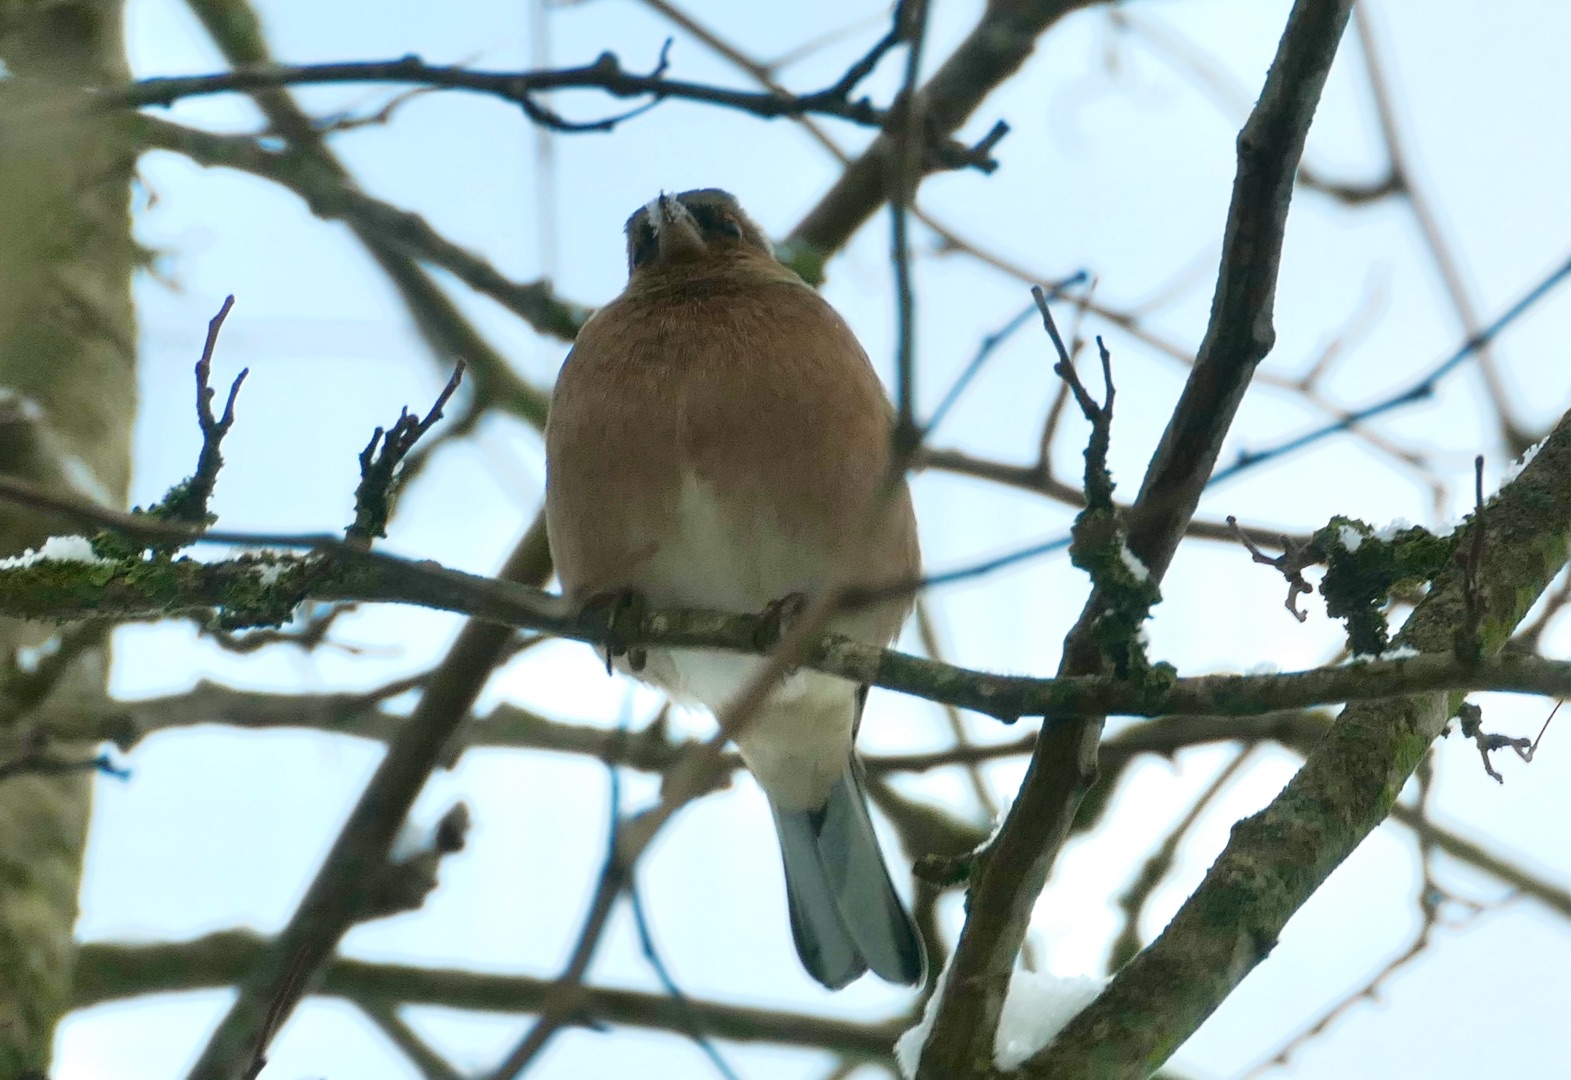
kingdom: Animalia
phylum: Chordata
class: Aves
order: Passeriformes
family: Fringillidae
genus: Fringilla
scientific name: Fringilla coelebs
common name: Bogfinke
